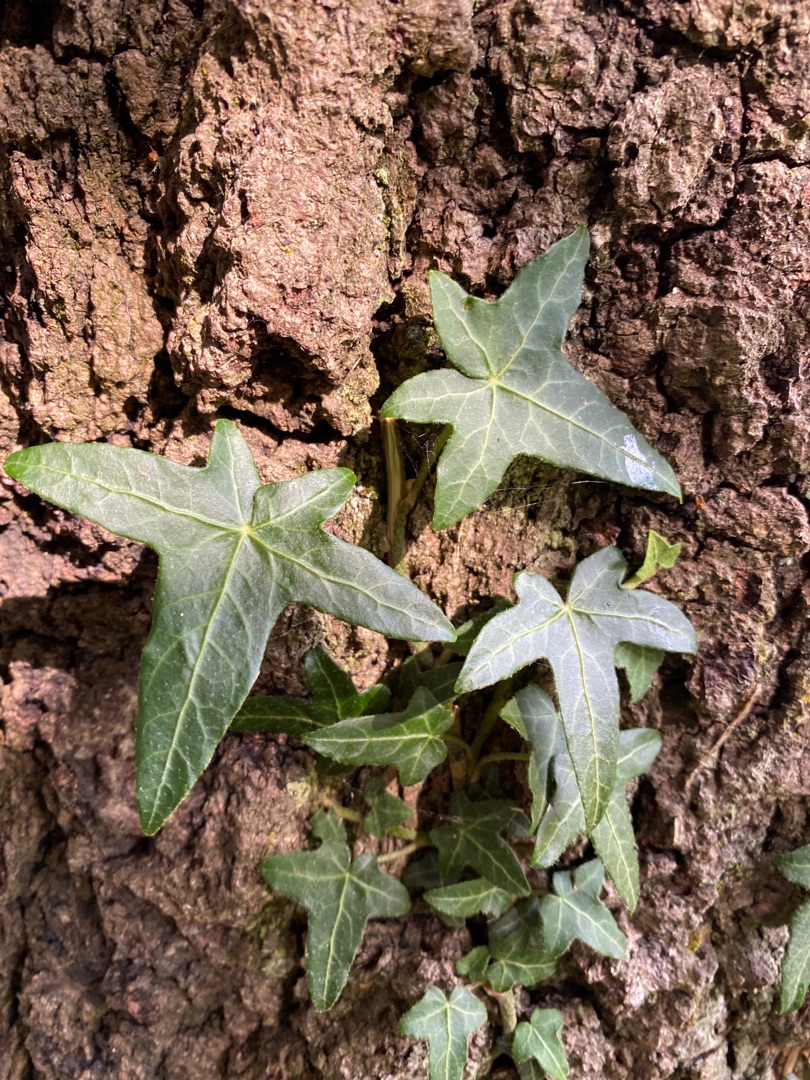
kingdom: Plantae
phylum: Tracheophyta
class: Magnoliopsida
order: Apiales
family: Araliaceae
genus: Hedera
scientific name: Hedera helix
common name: Vedbend
